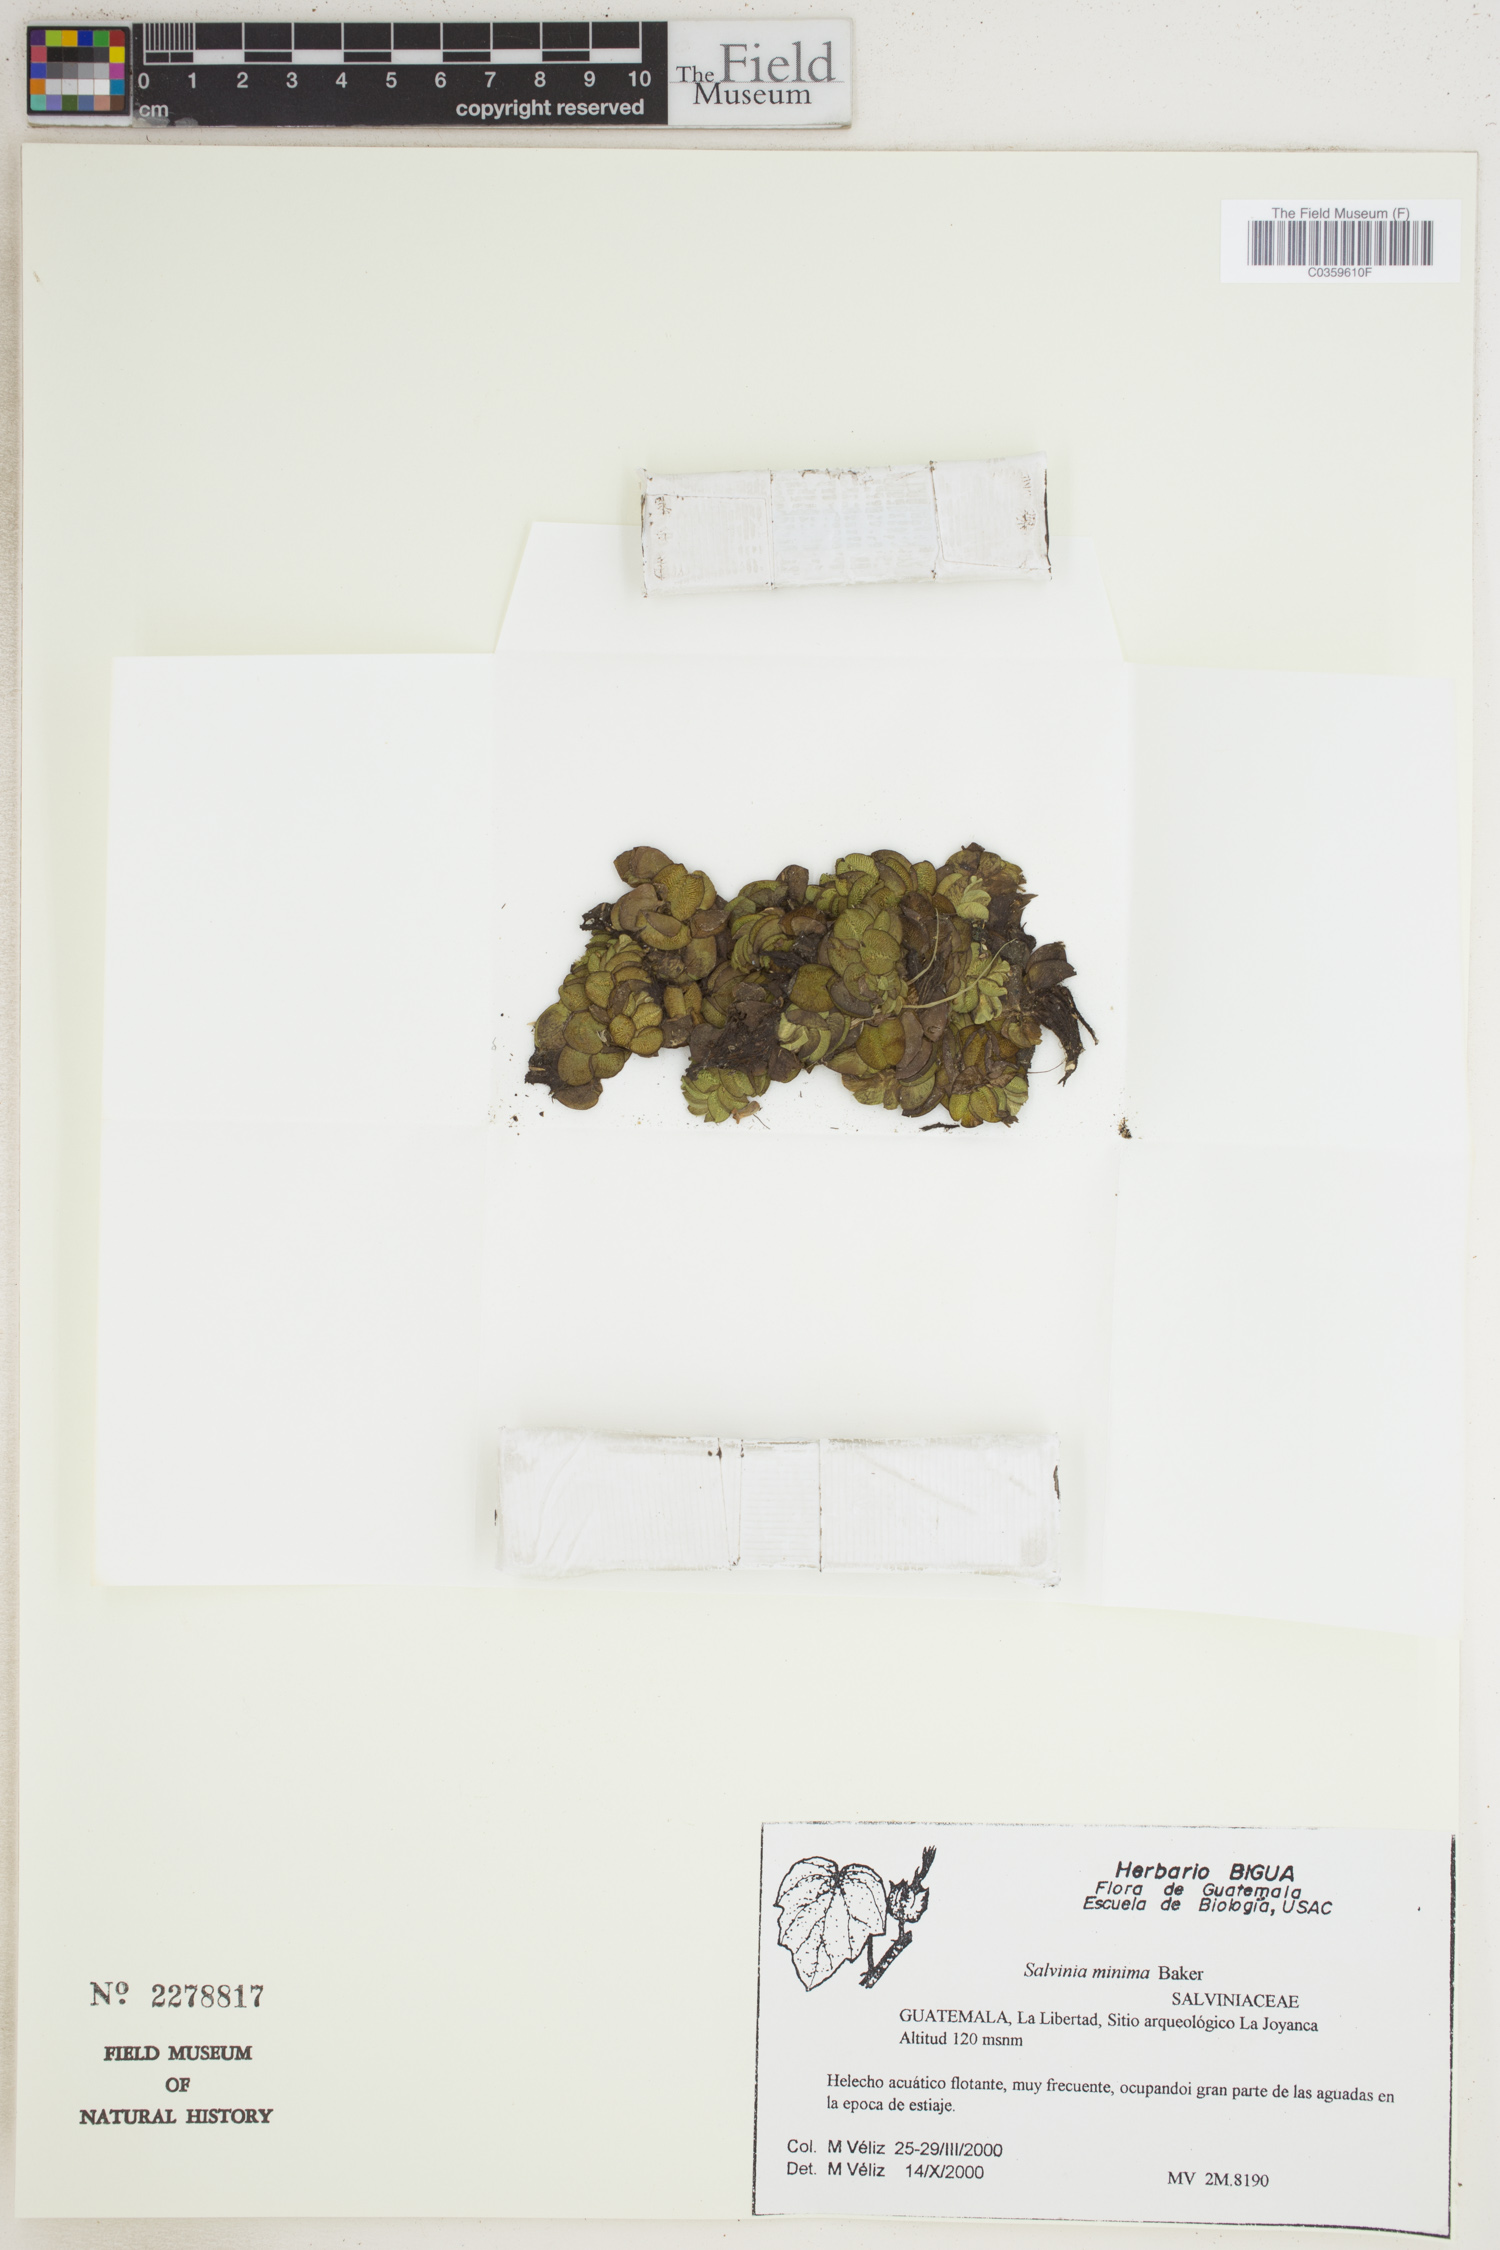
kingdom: Plantae
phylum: Tracheophyta
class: Polypodiopsida
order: Salviniales
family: Salviniaceae
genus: Salvinia
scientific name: Salvinia minima
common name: Water spangles
